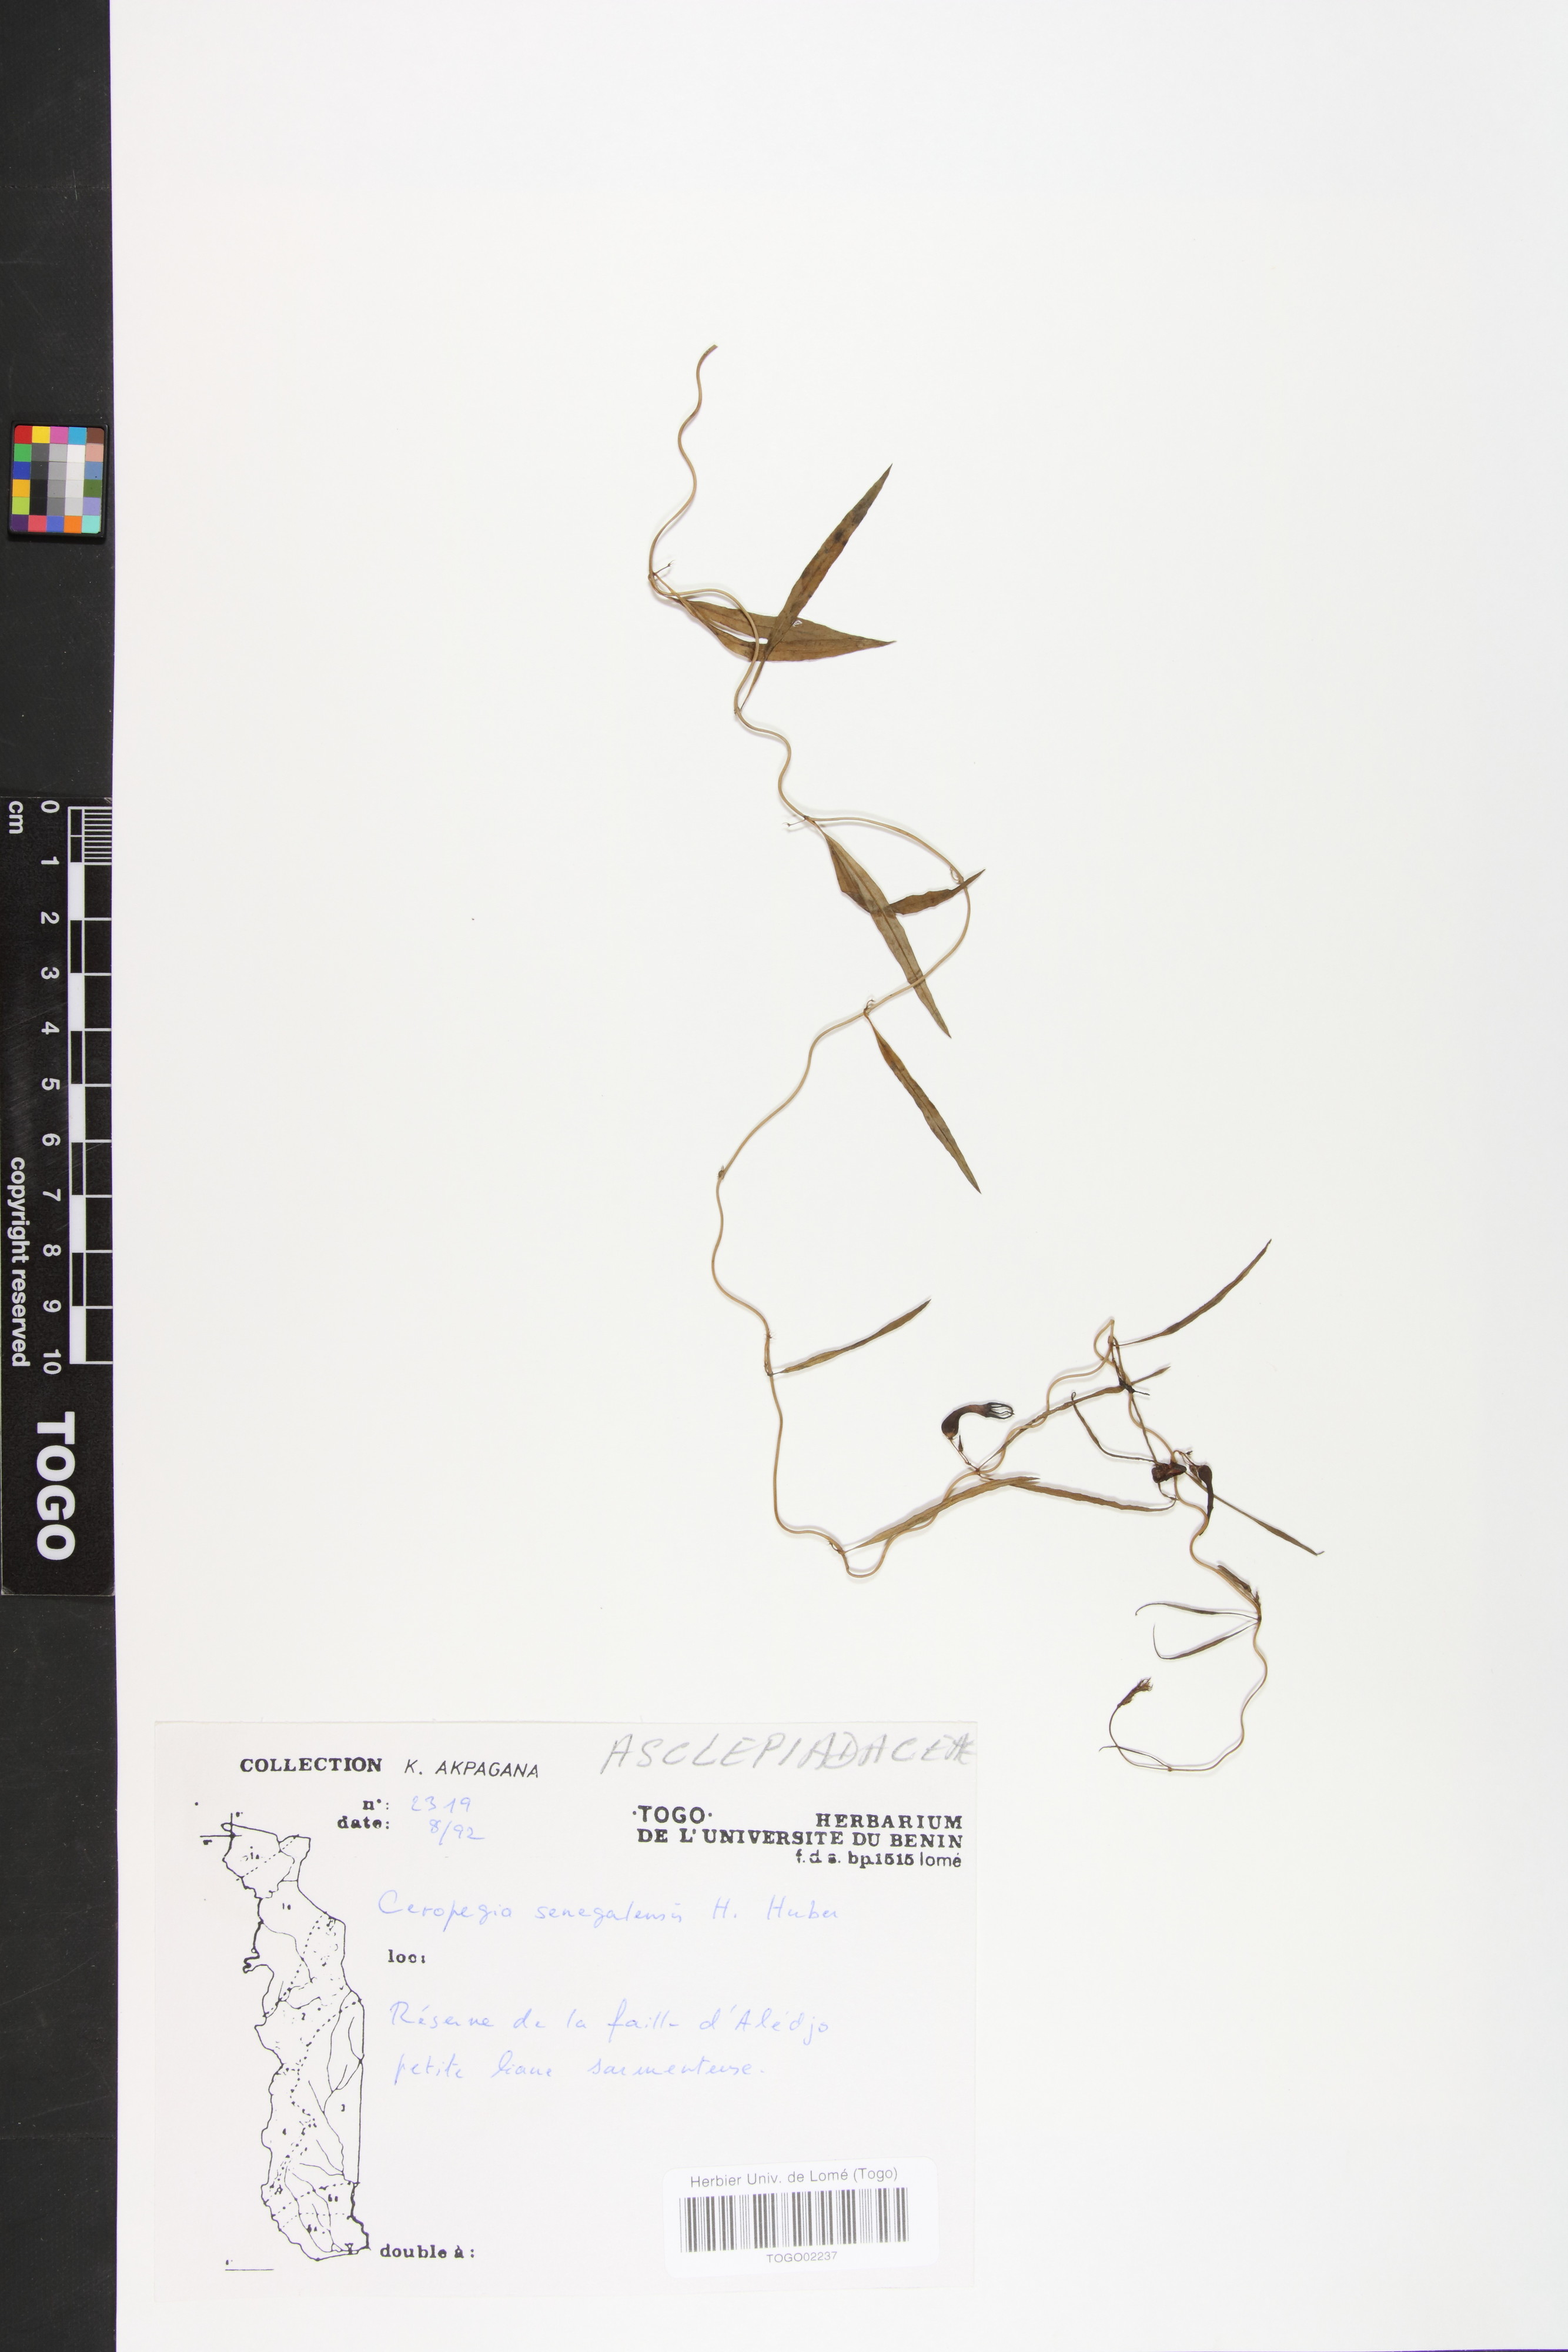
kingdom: Plantae
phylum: Tracheophyta
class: Magnoliopsida
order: Gentianales
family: Apocynaceae
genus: Ceropegia
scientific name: Ceropegia linophylla
